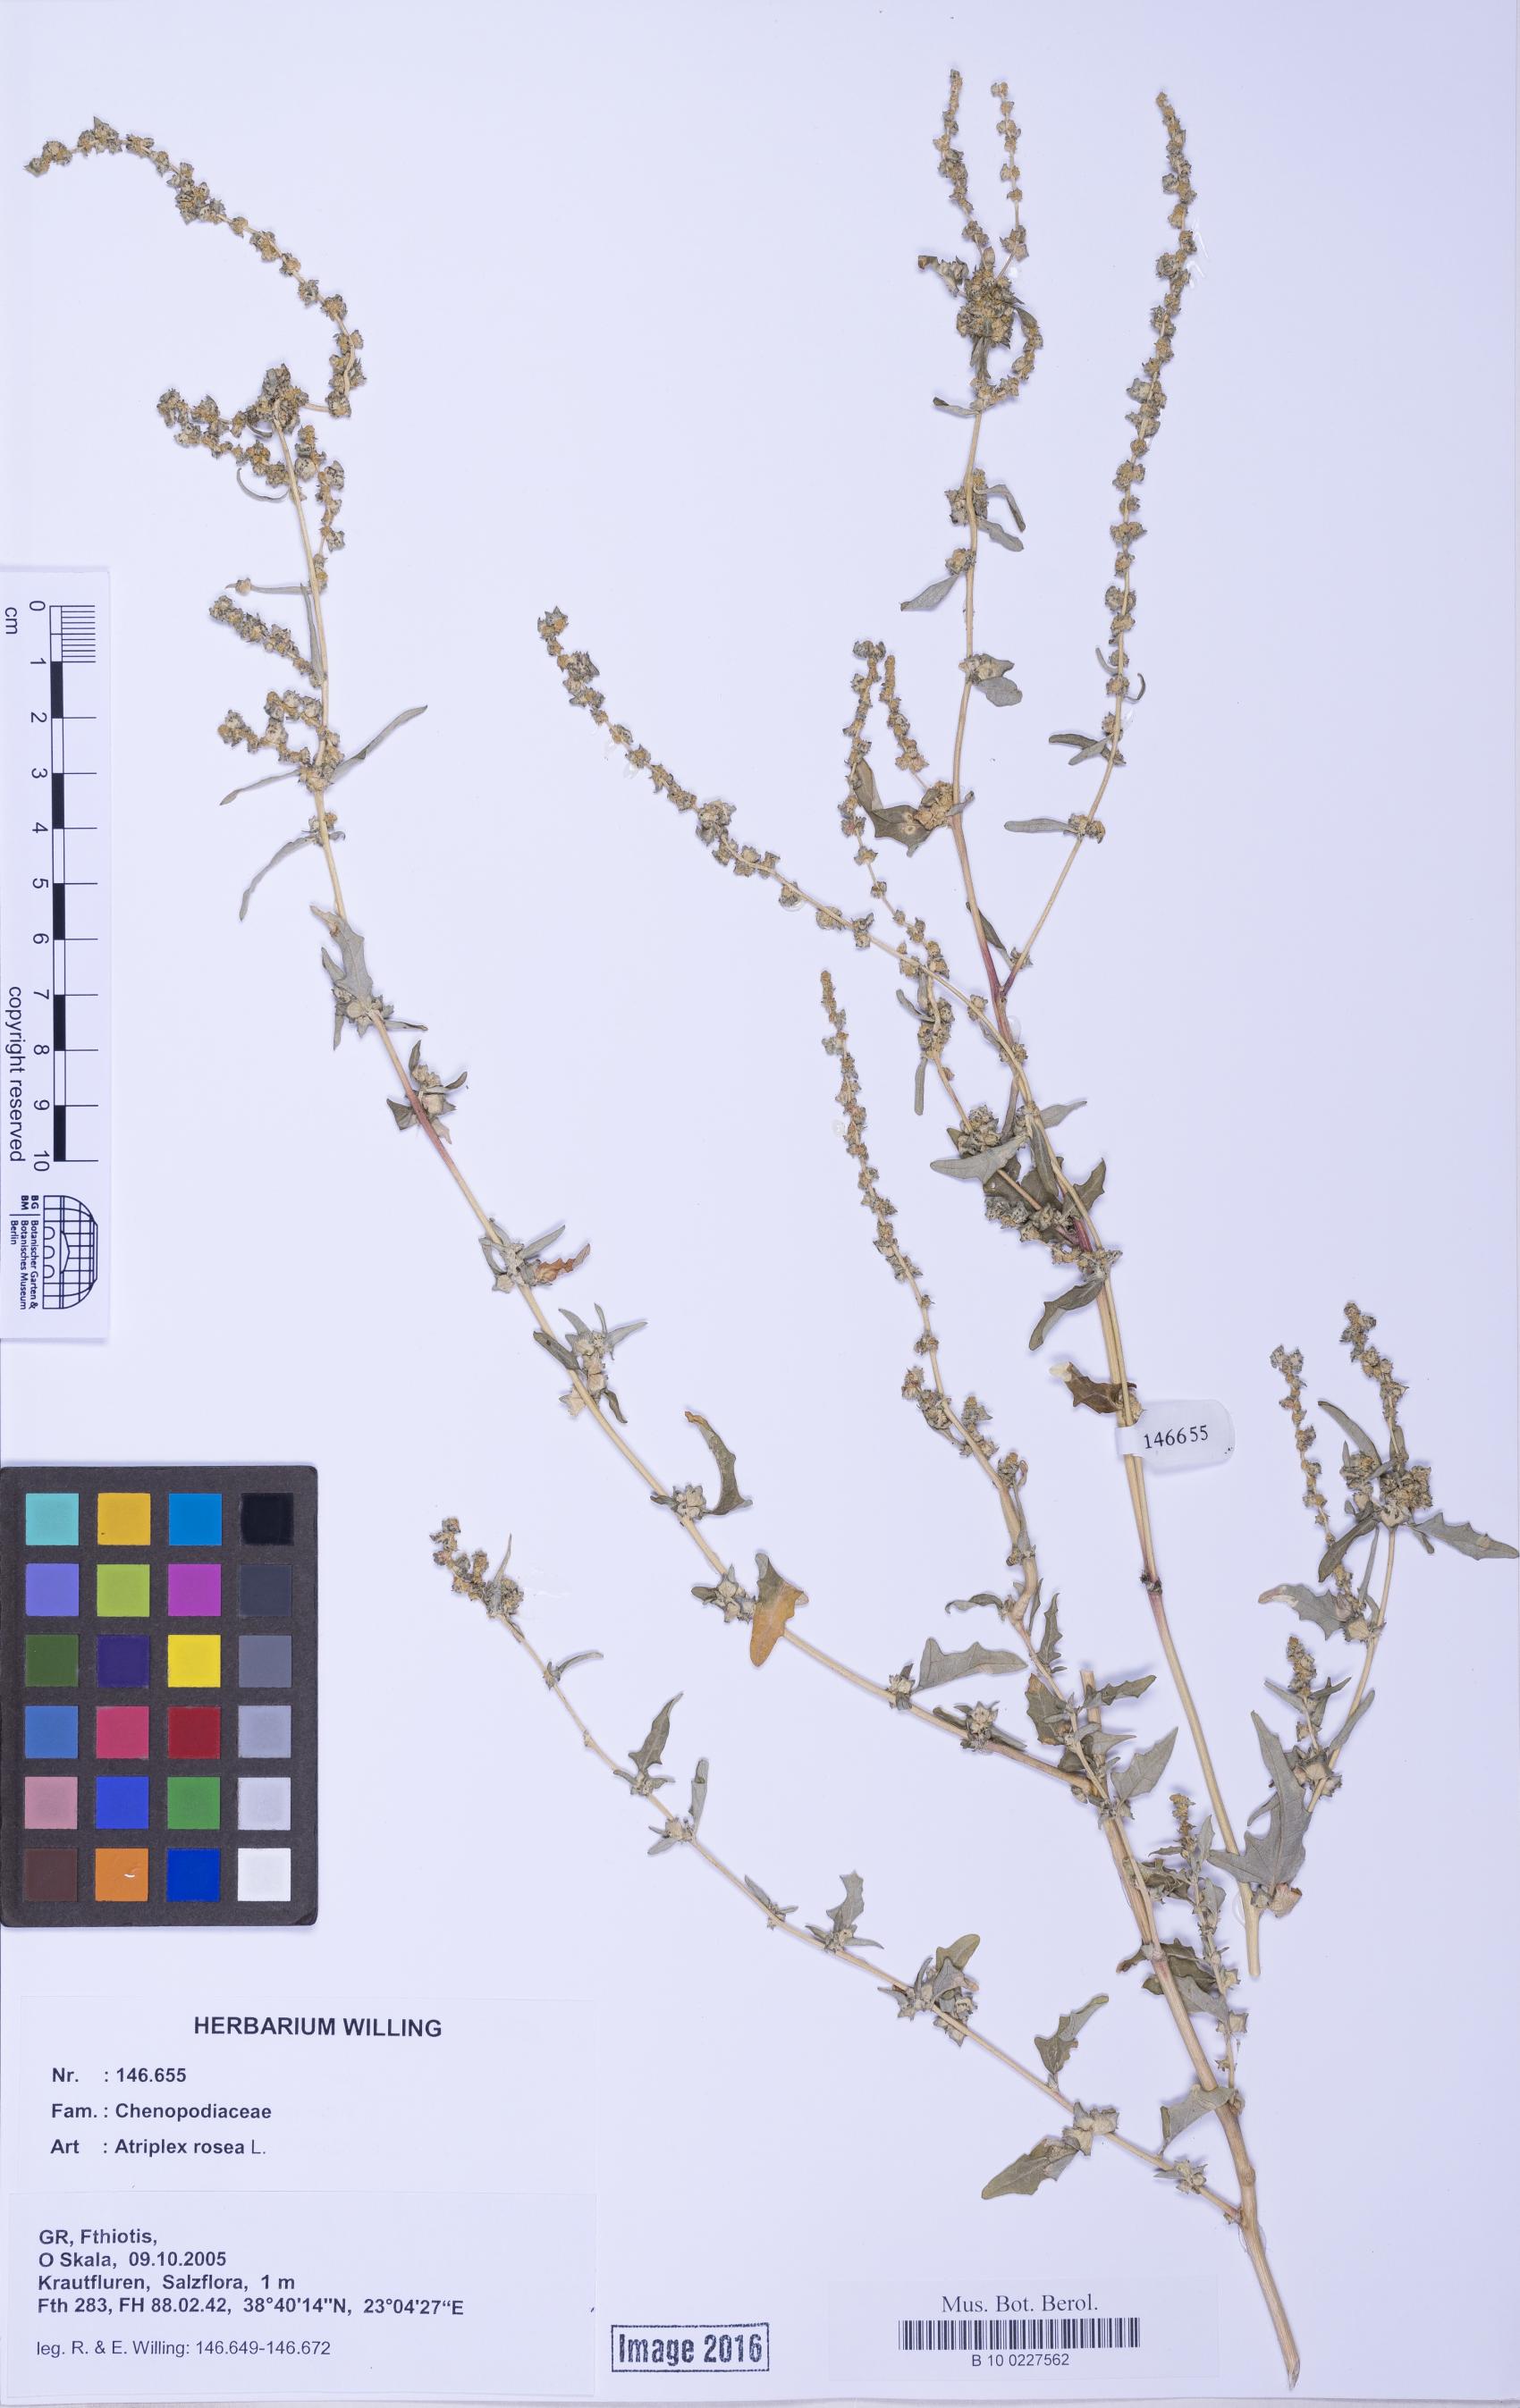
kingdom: Plantae
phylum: Tracheophyta
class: Magnoliopsida
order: Caryophyllales
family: Amaranthaceae
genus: Atriplex
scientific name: Atriplex tatarica
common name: Tatarian orache
